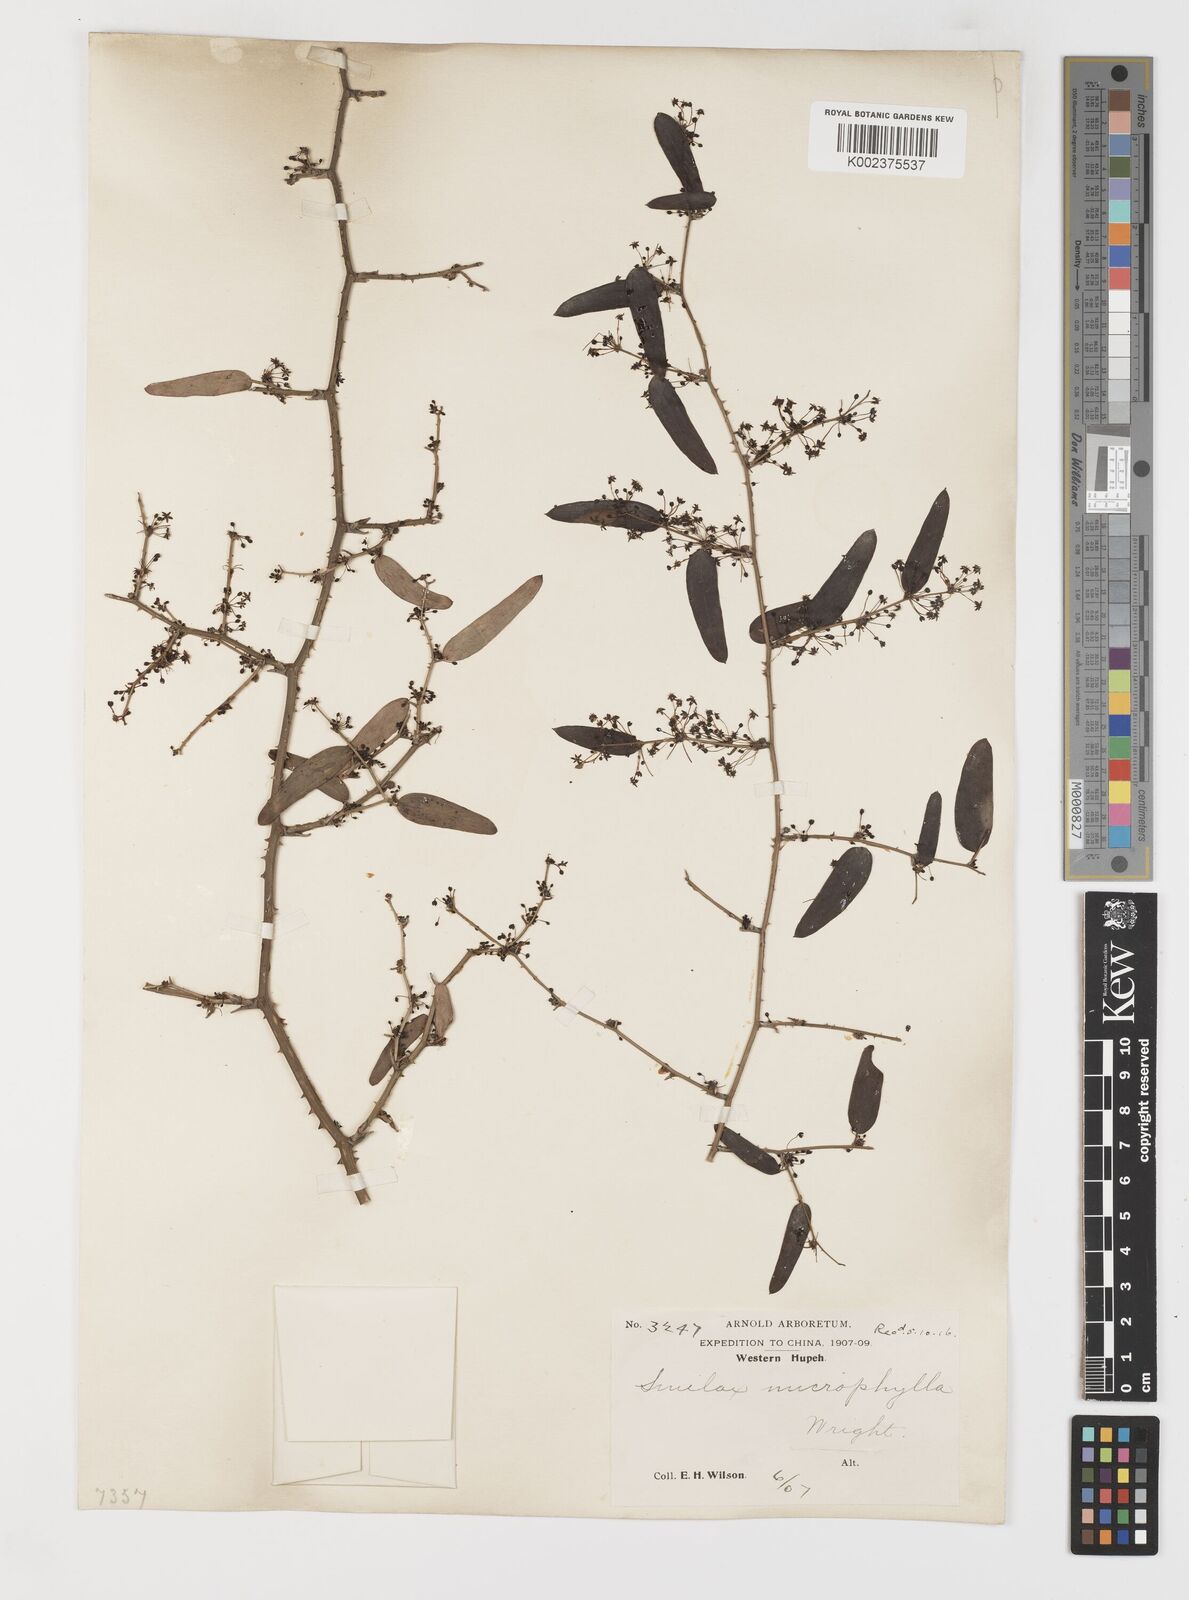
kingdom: Plantae
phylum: Tracheophyta
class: Liliopsida
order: Liliales
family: Smilacaceae
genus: Smilax
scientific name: Smilax microphylla
